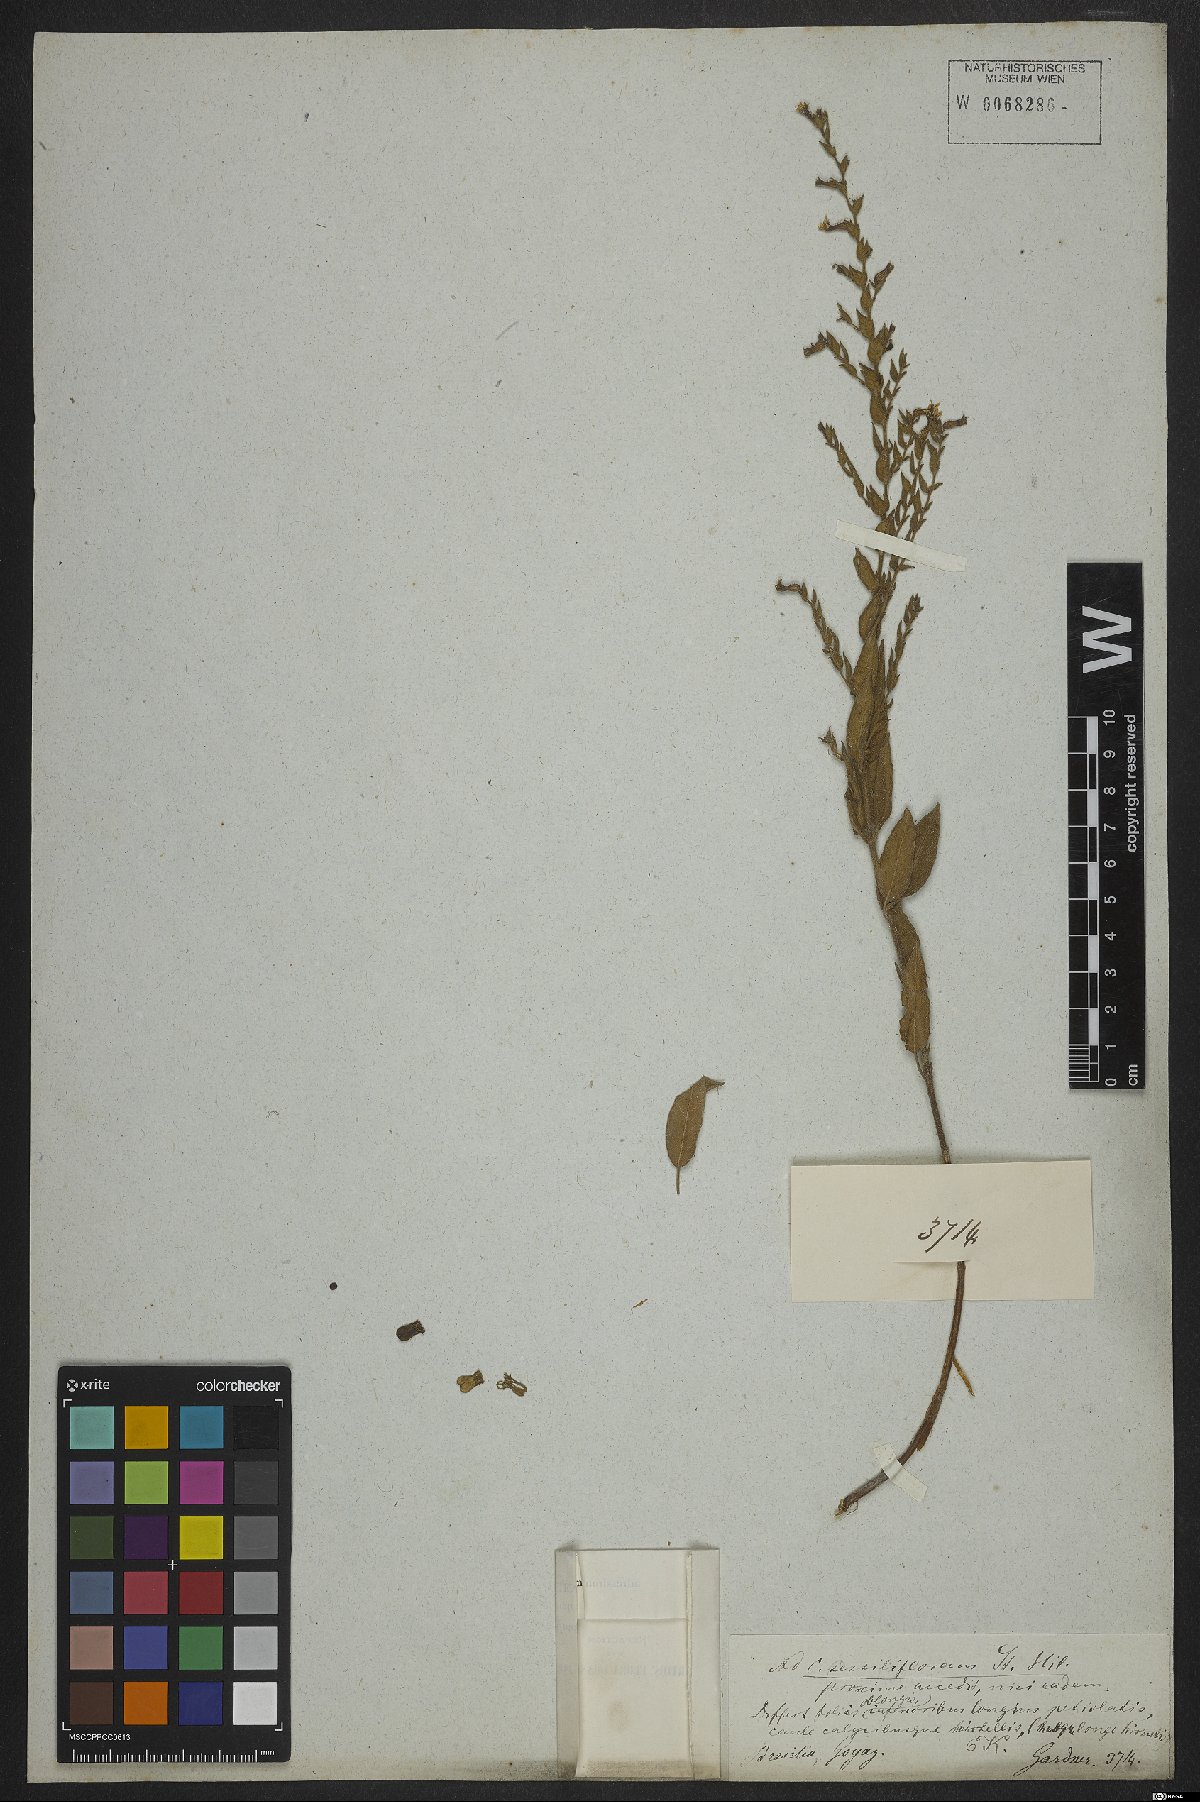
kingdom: Plantae
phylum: Tracheophyta
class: Magnoliopsida
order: Myrtales
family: Lythraceae
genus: Cuphea
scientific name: Cuphea sessiliflora
